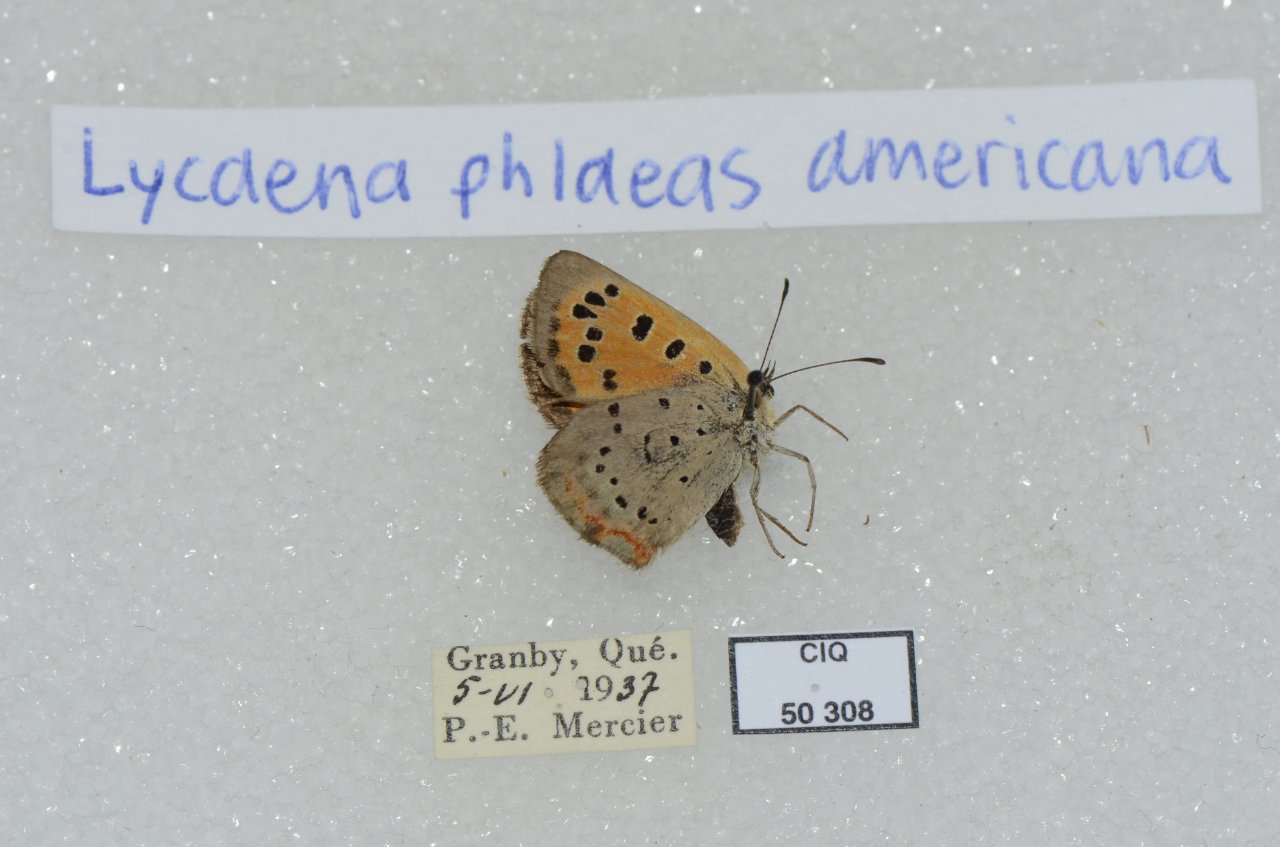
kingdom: Animalia
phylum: Arthropoda
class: Insecta
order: Lepidoptera
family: Lycaenidae
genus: Lycaena
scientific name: Lycaena phlaeas
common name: American Copper
